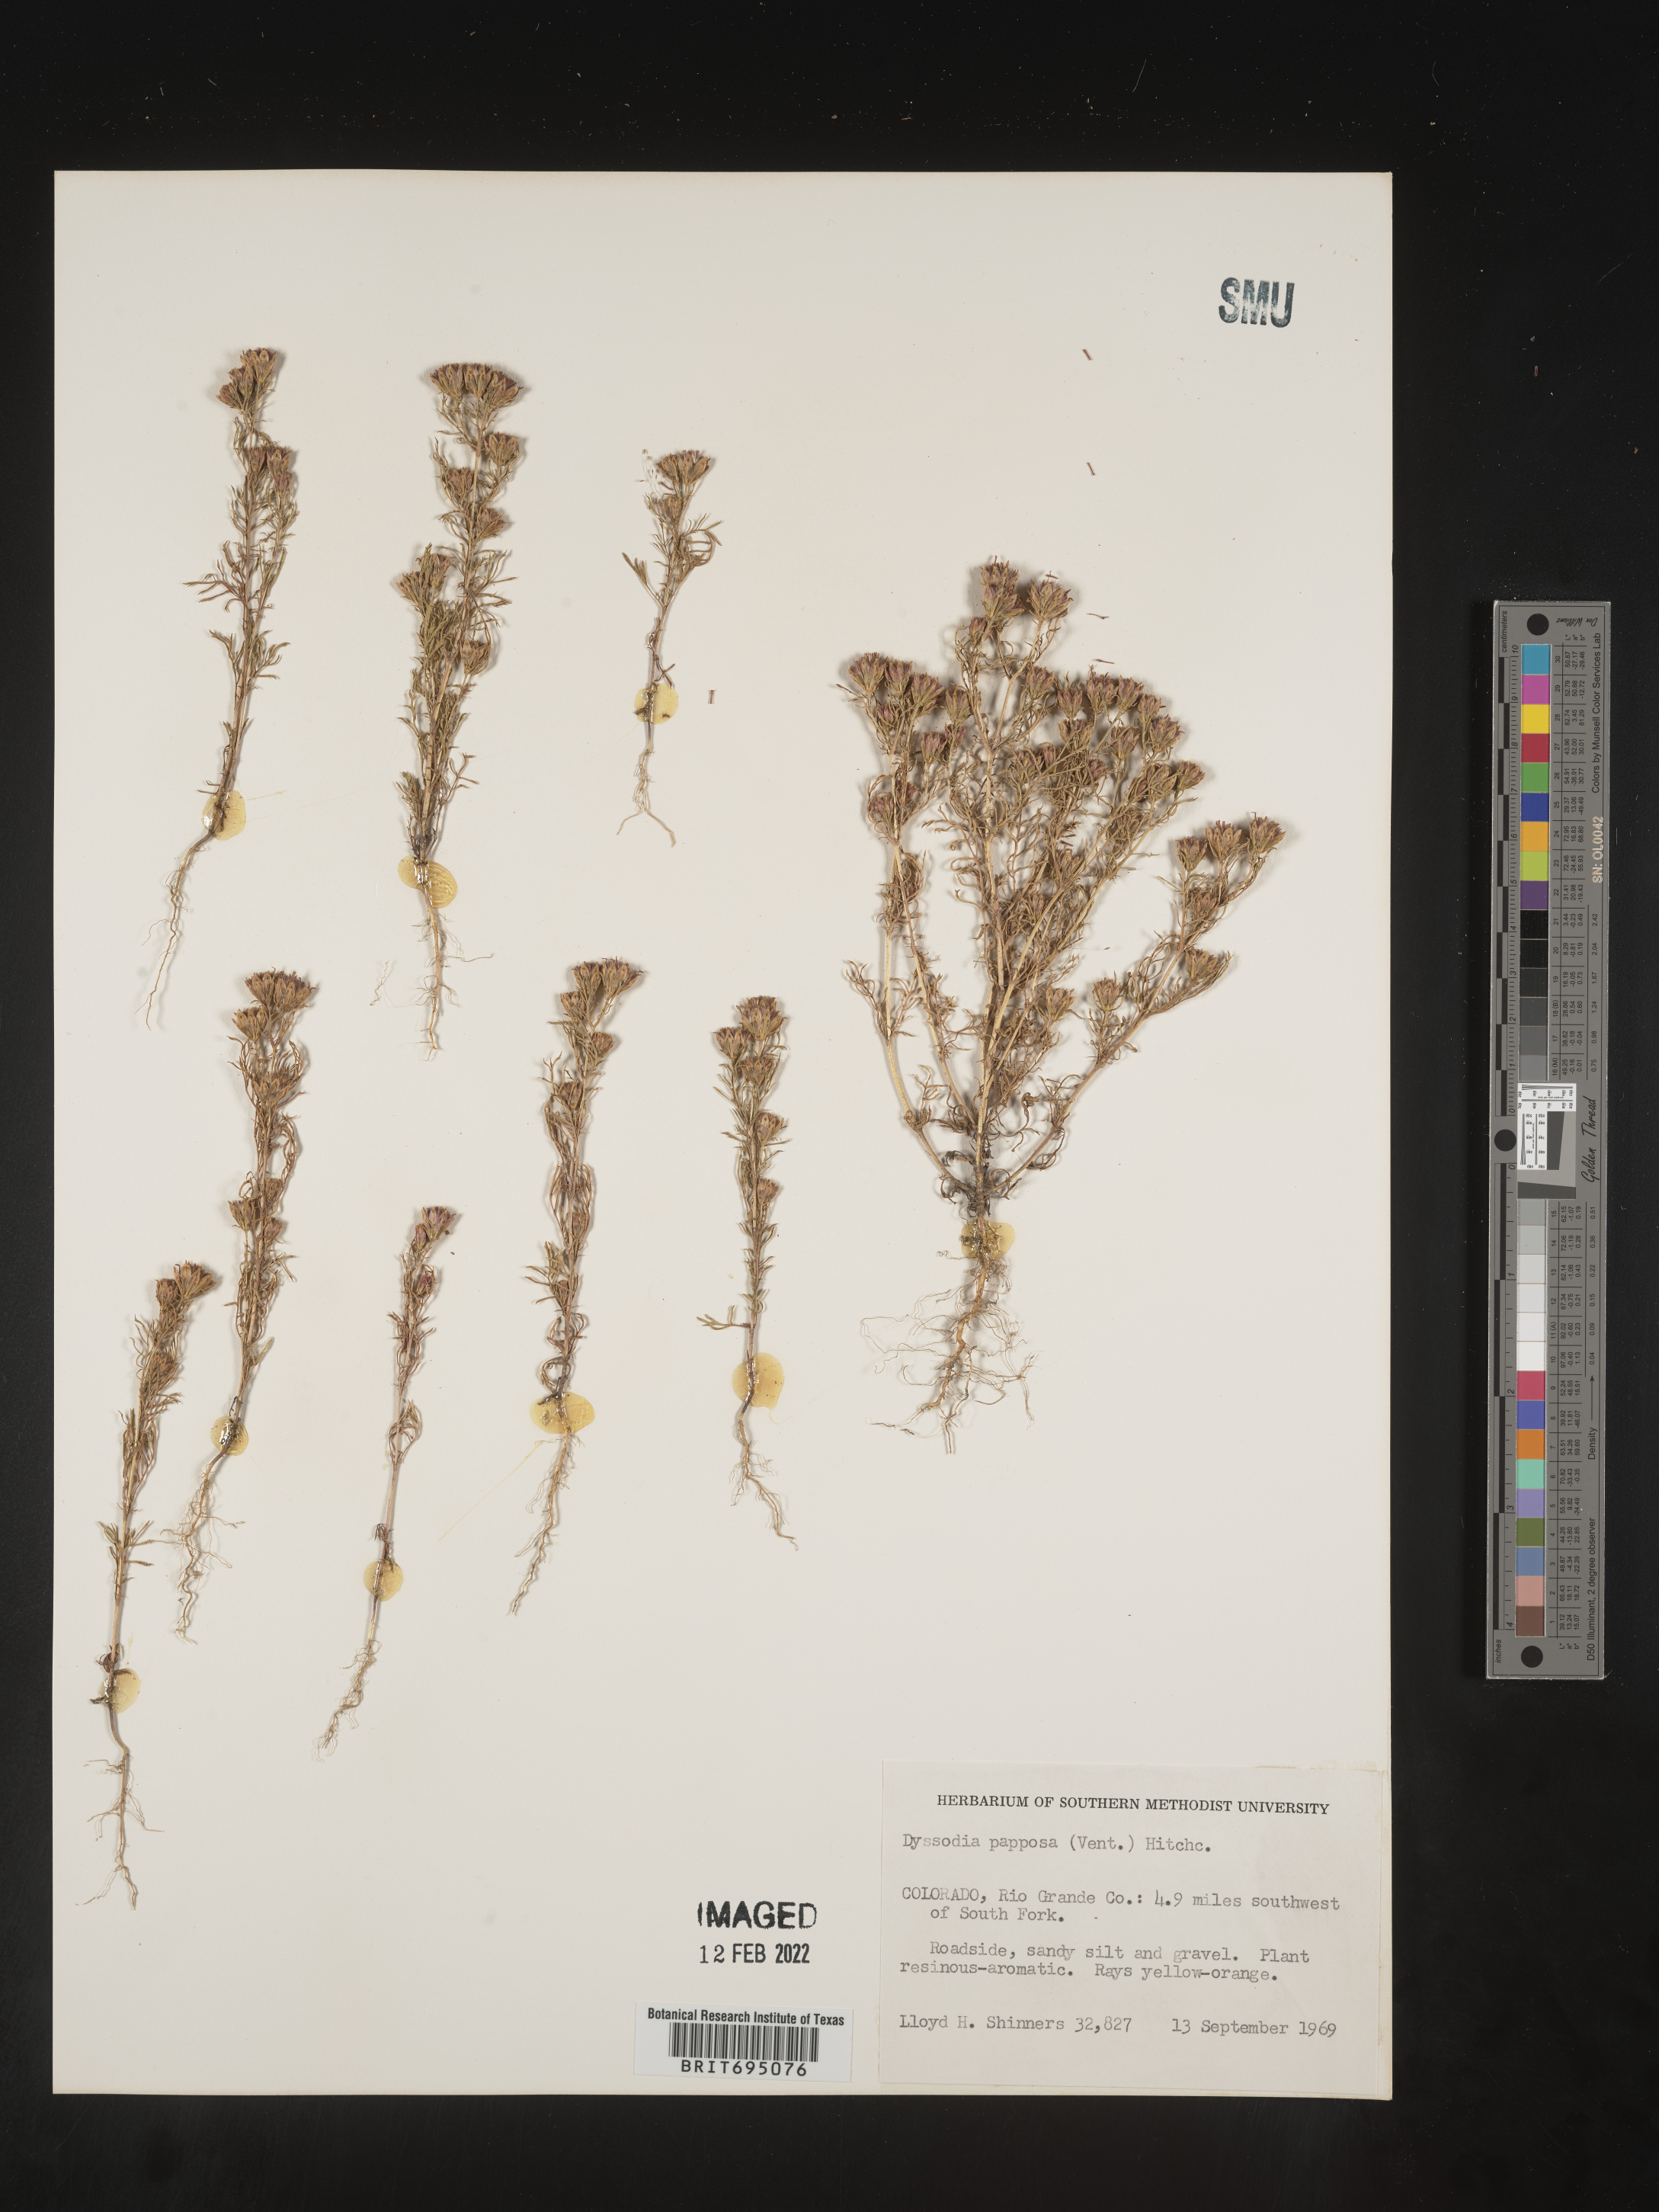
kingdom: Plantae
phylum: Tracheophyta
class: Magnoliopsida
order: Asterales
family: Asteraceae
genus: Dyssodia
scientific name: Dyssodia papposa
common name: Dogweed
